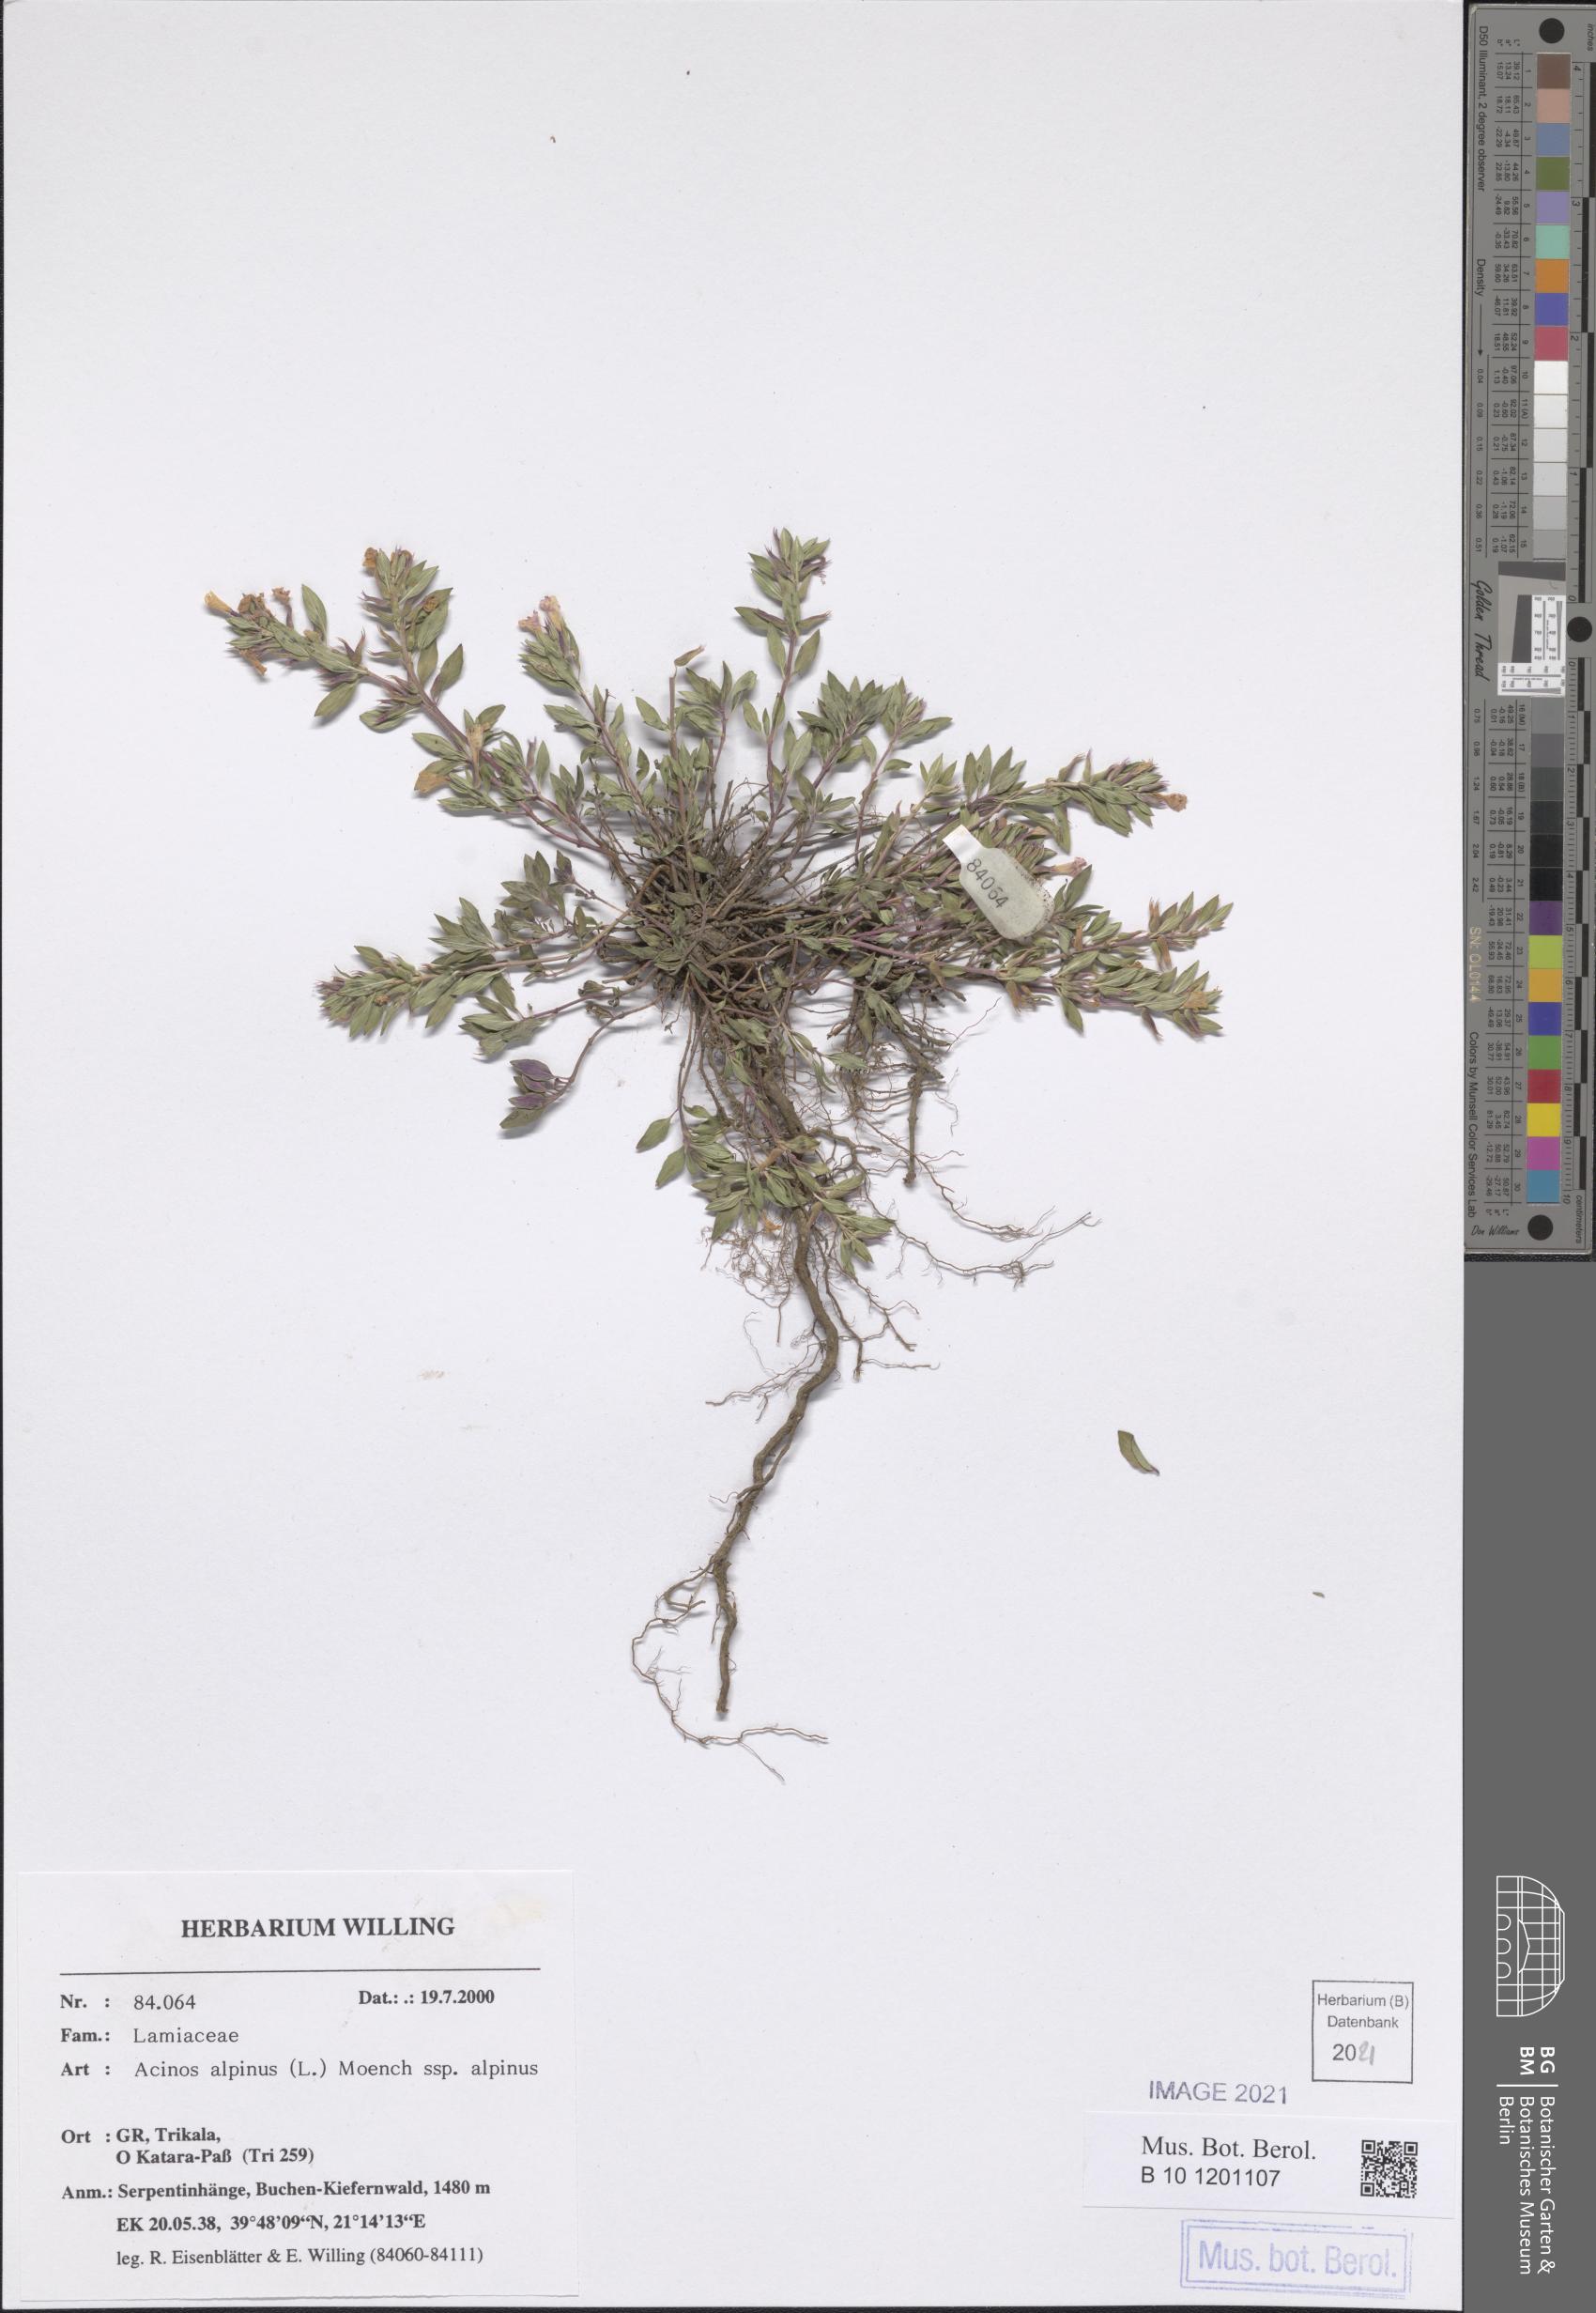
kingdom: Plantae
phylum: Tracheophyta
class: Magnoliopsida
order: Lamiales
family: Lamiaceae
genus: Clinopodium
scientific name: Clinopodium alpinum
